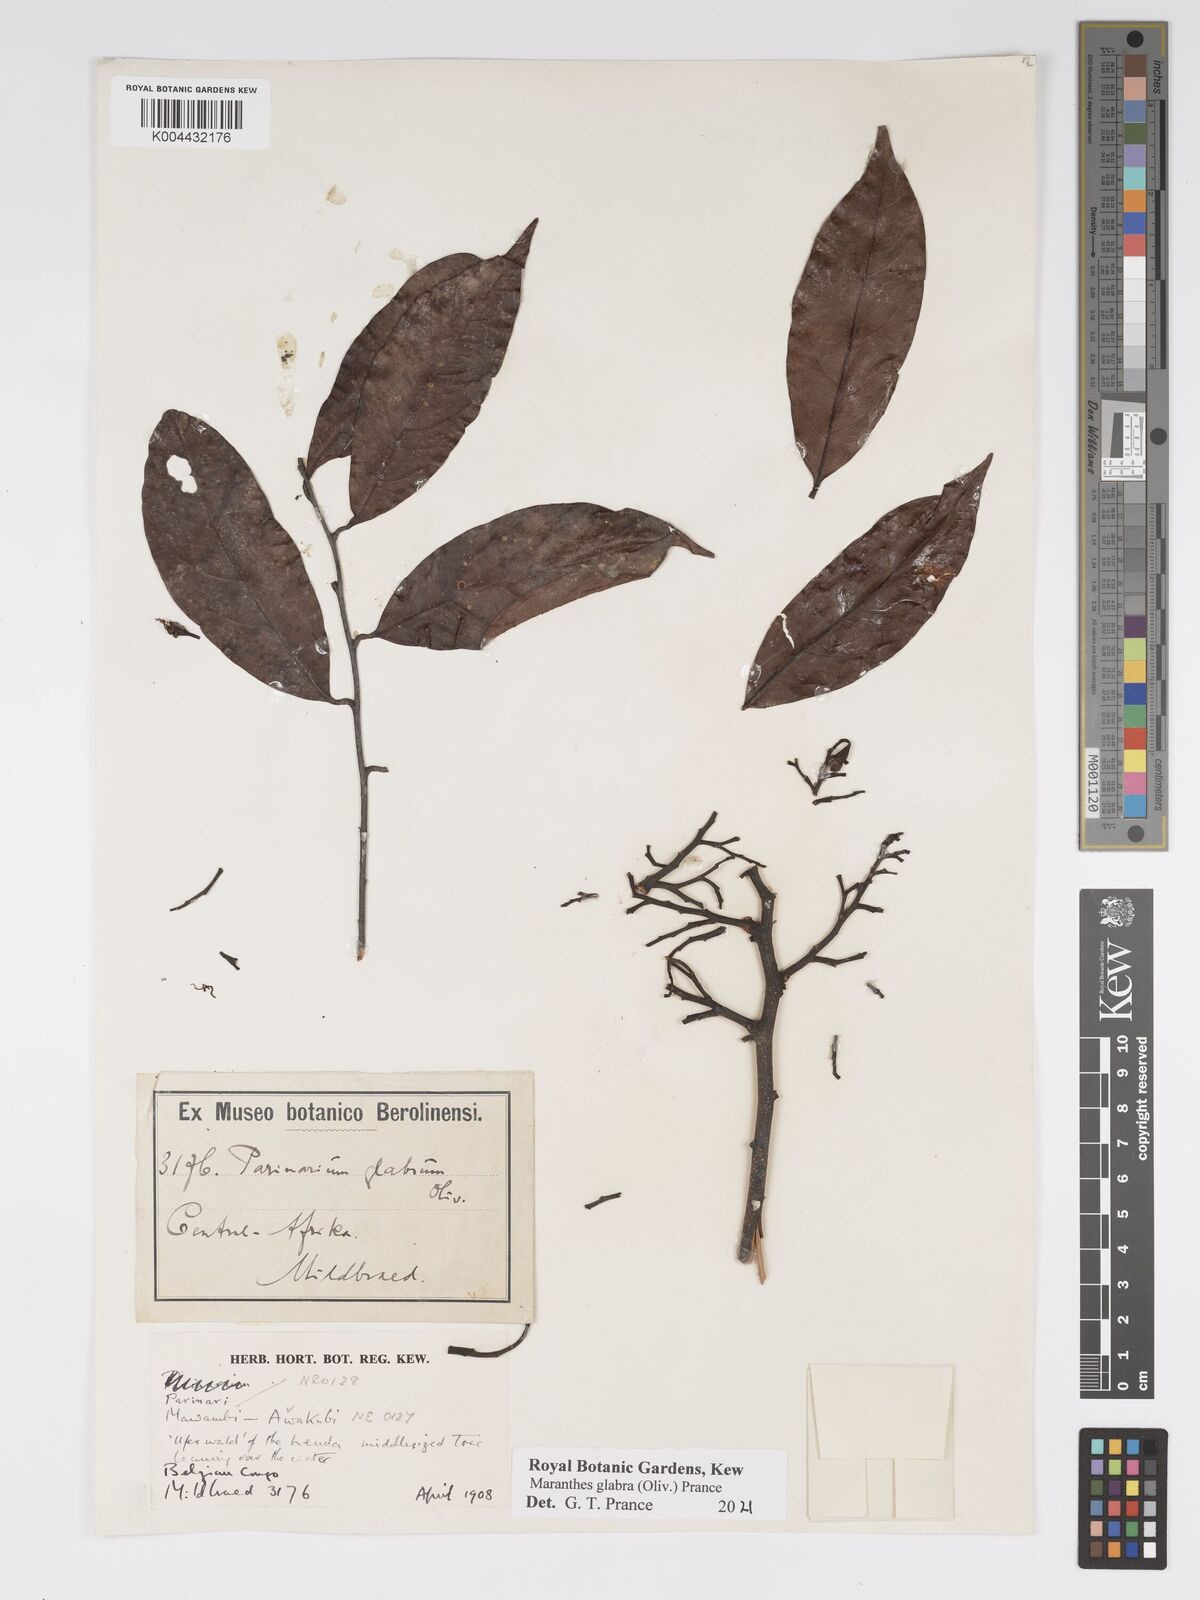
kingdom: Plantae
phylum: Tracheophyta
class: Magnoliopsida
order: Malpighiales
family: Chrysobalanaceae
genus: Maranthes
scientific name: Maranthes glabra
